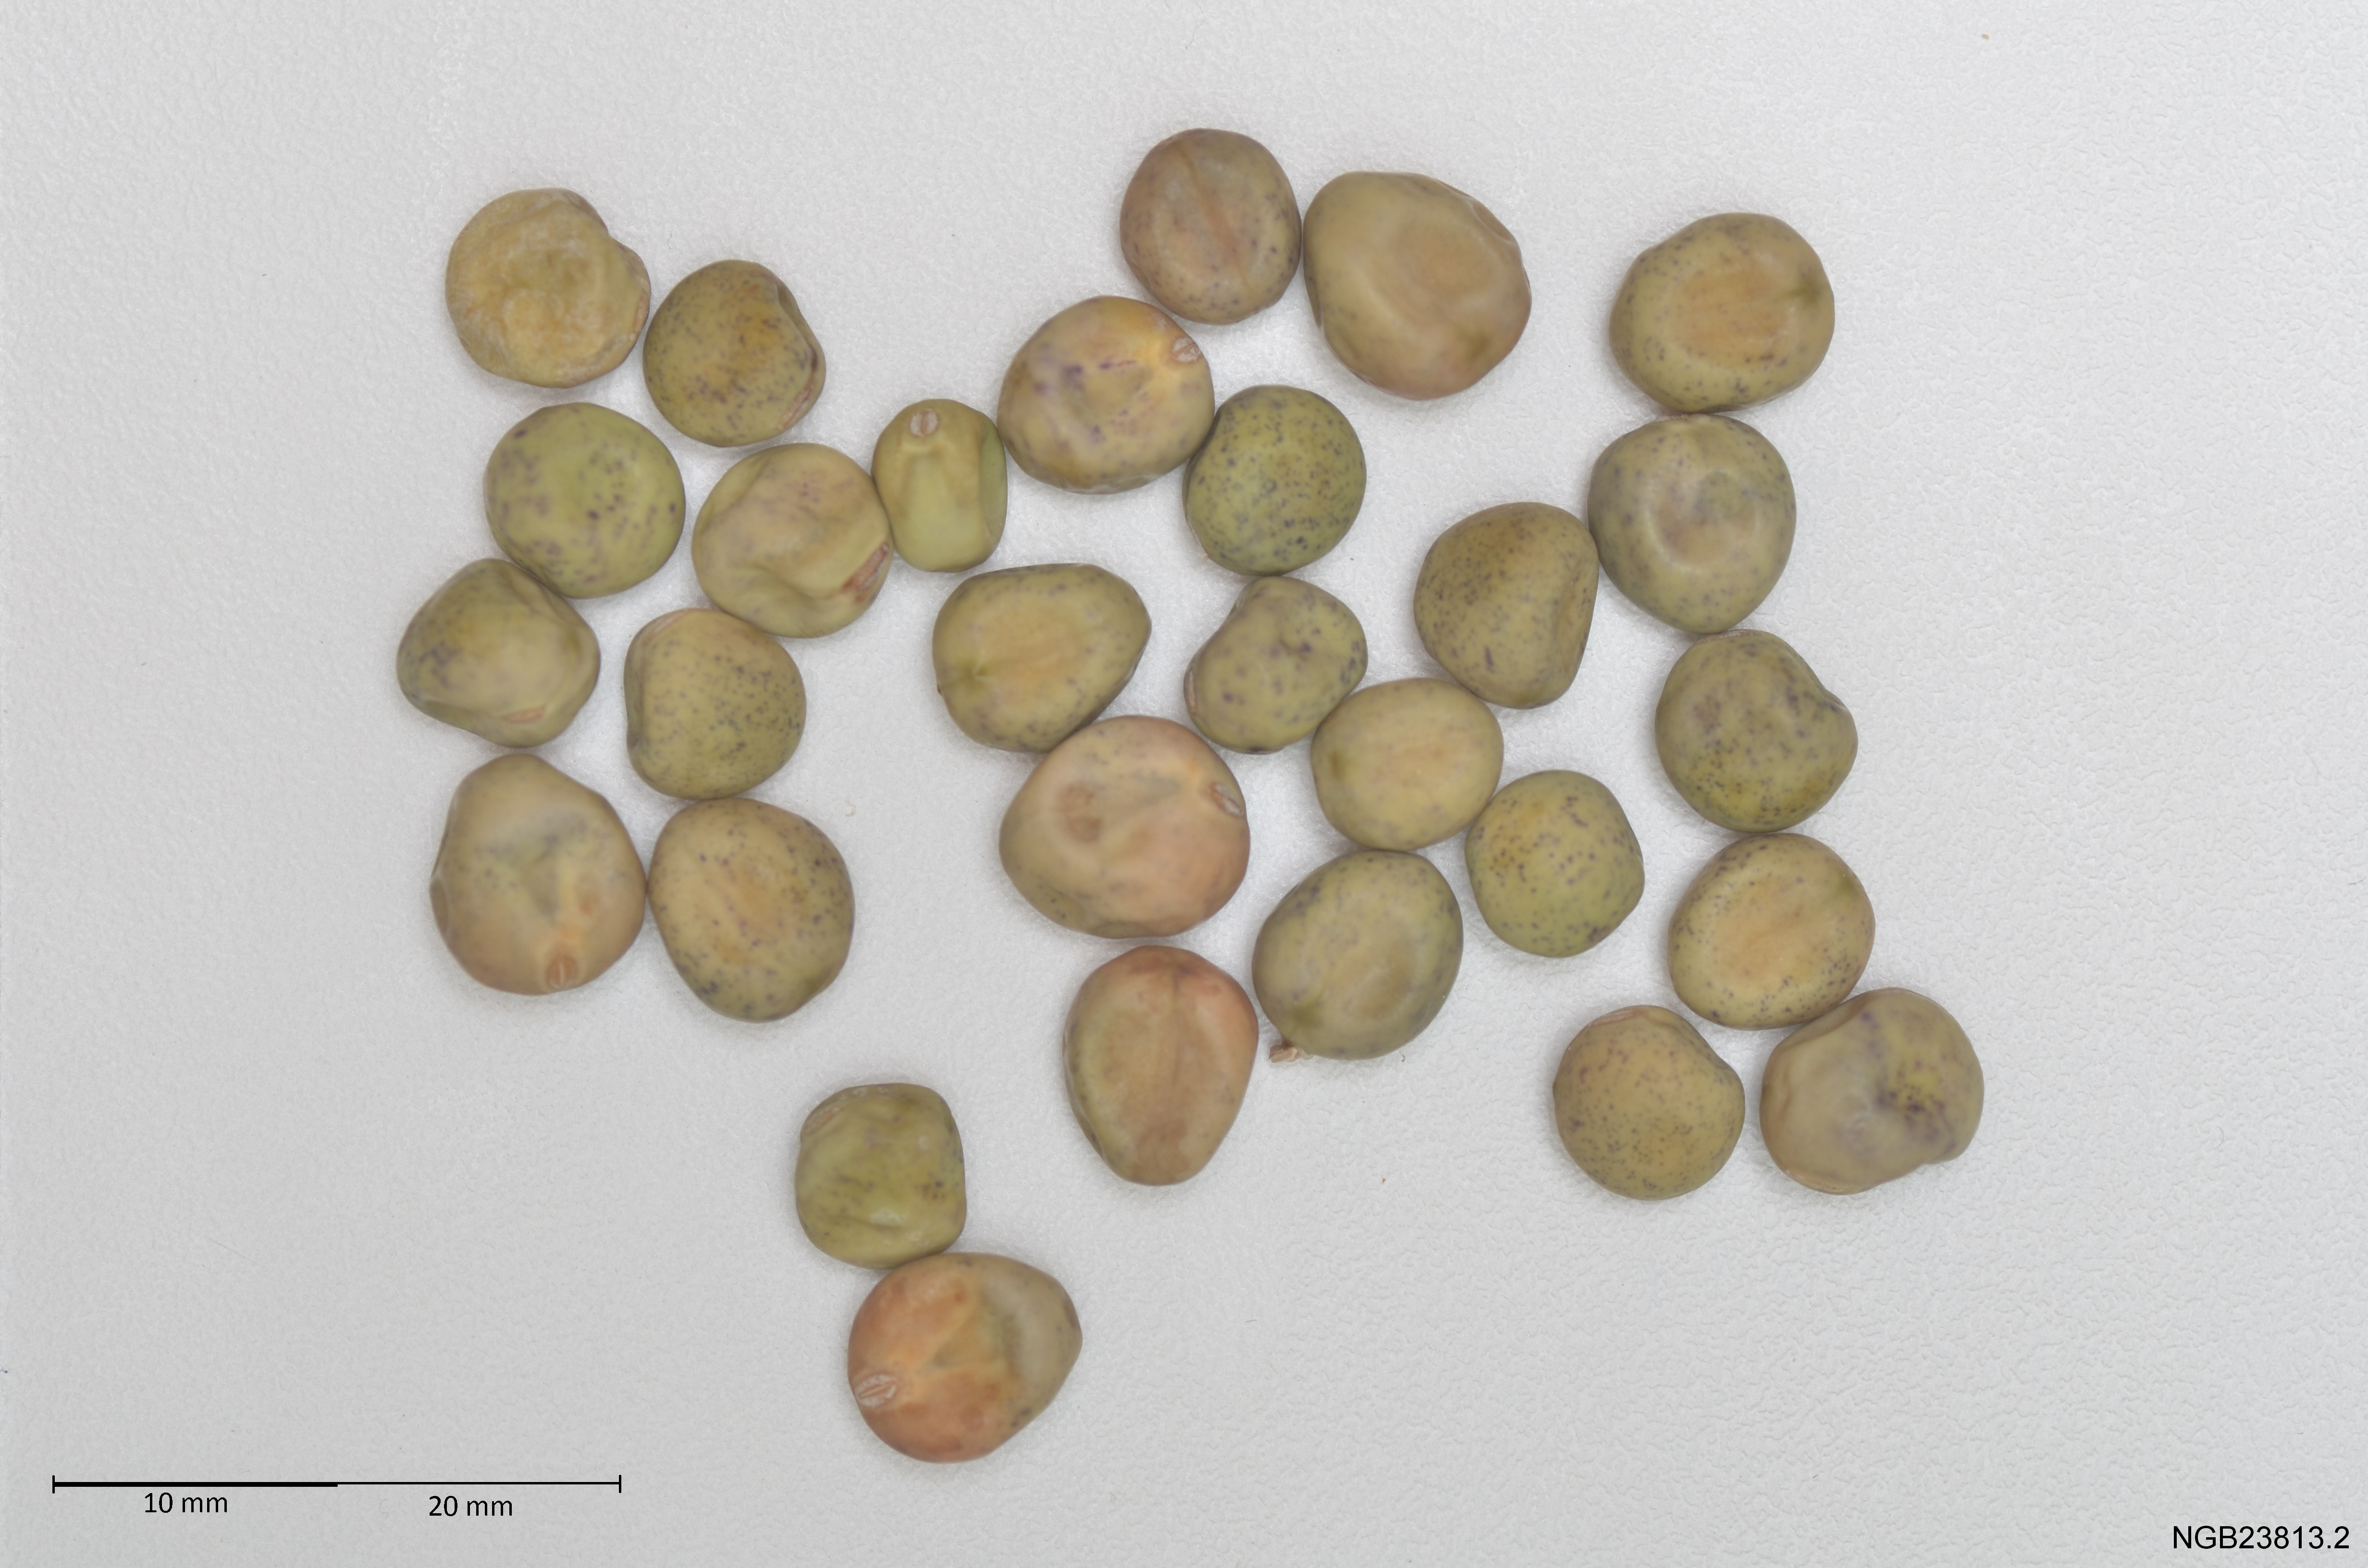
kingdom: Plantae
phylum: Tracheophyta
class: Magnoliopsida
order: Fabales
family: Fabaceae
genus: Lathyrus
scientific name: Lathyrus oleraceus
